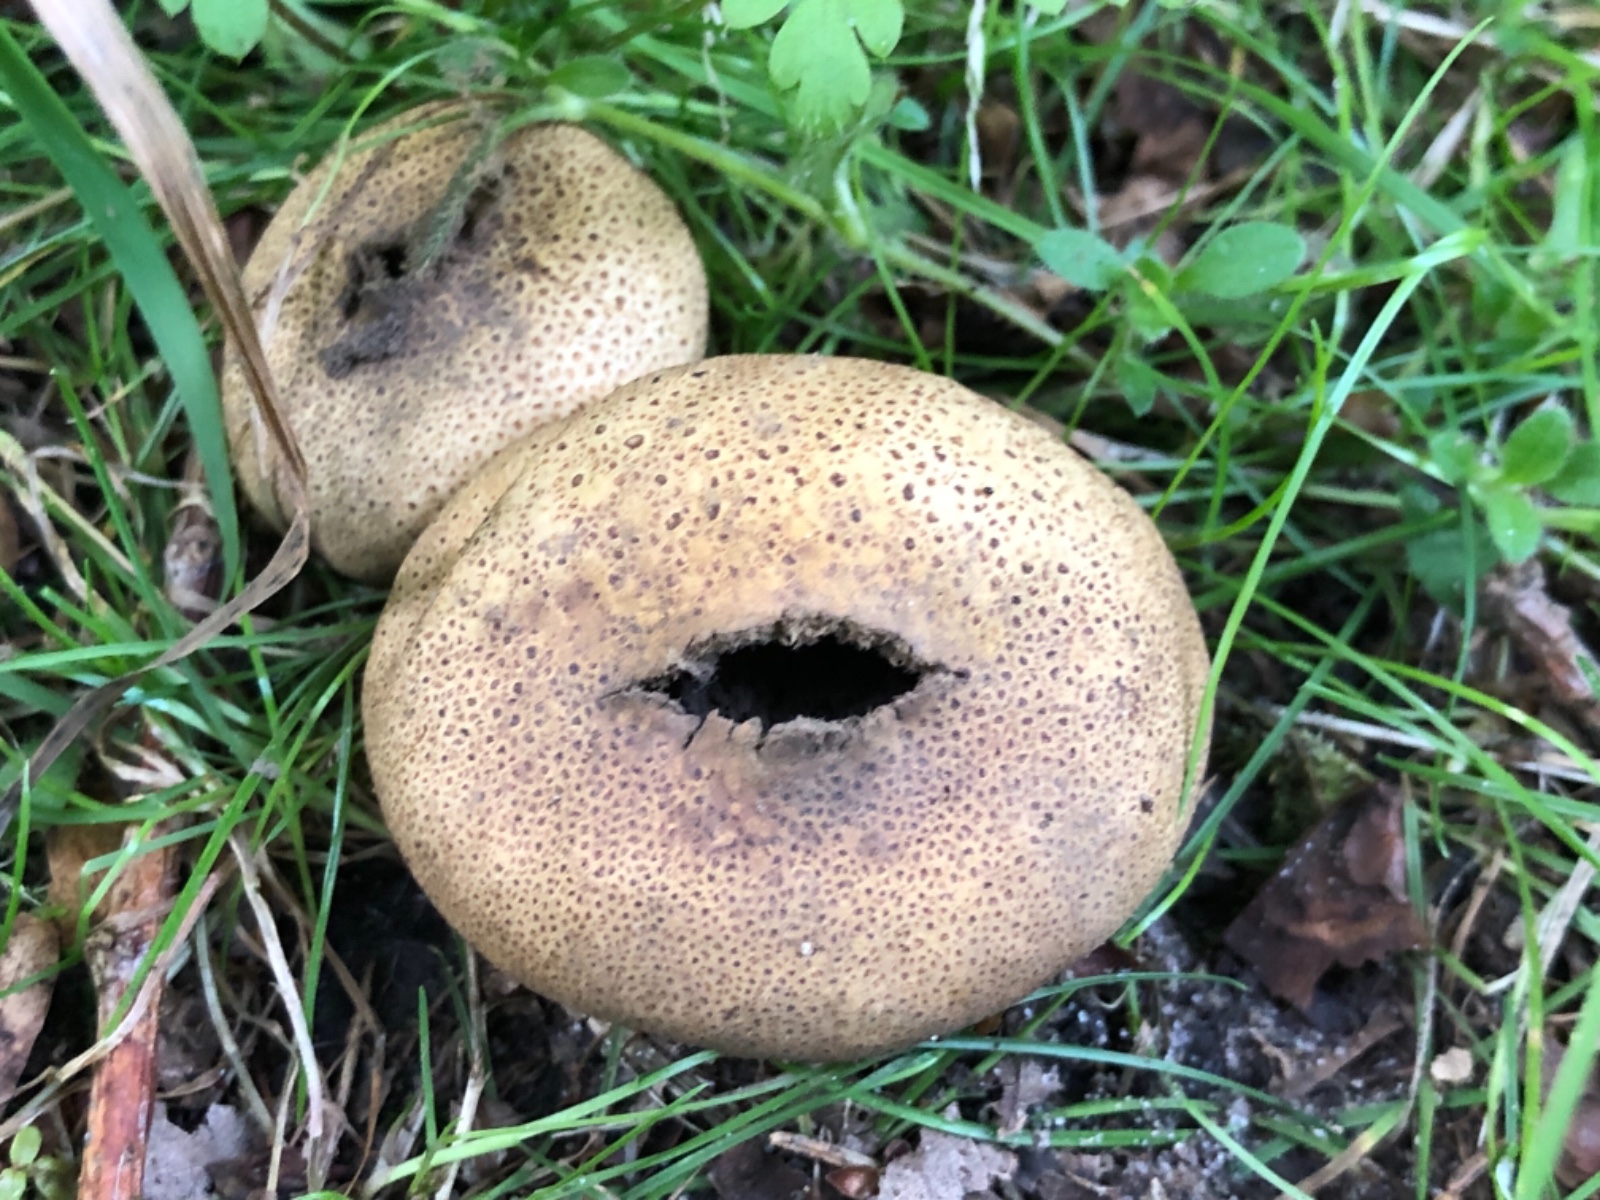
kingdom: Fungi
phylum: Basidiomycota
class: Agaricomycetes
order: Boletales
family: Sclerodermataceae
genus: Scleroderma
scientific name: Scleroderma areolatum
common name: plettet bruskbold
